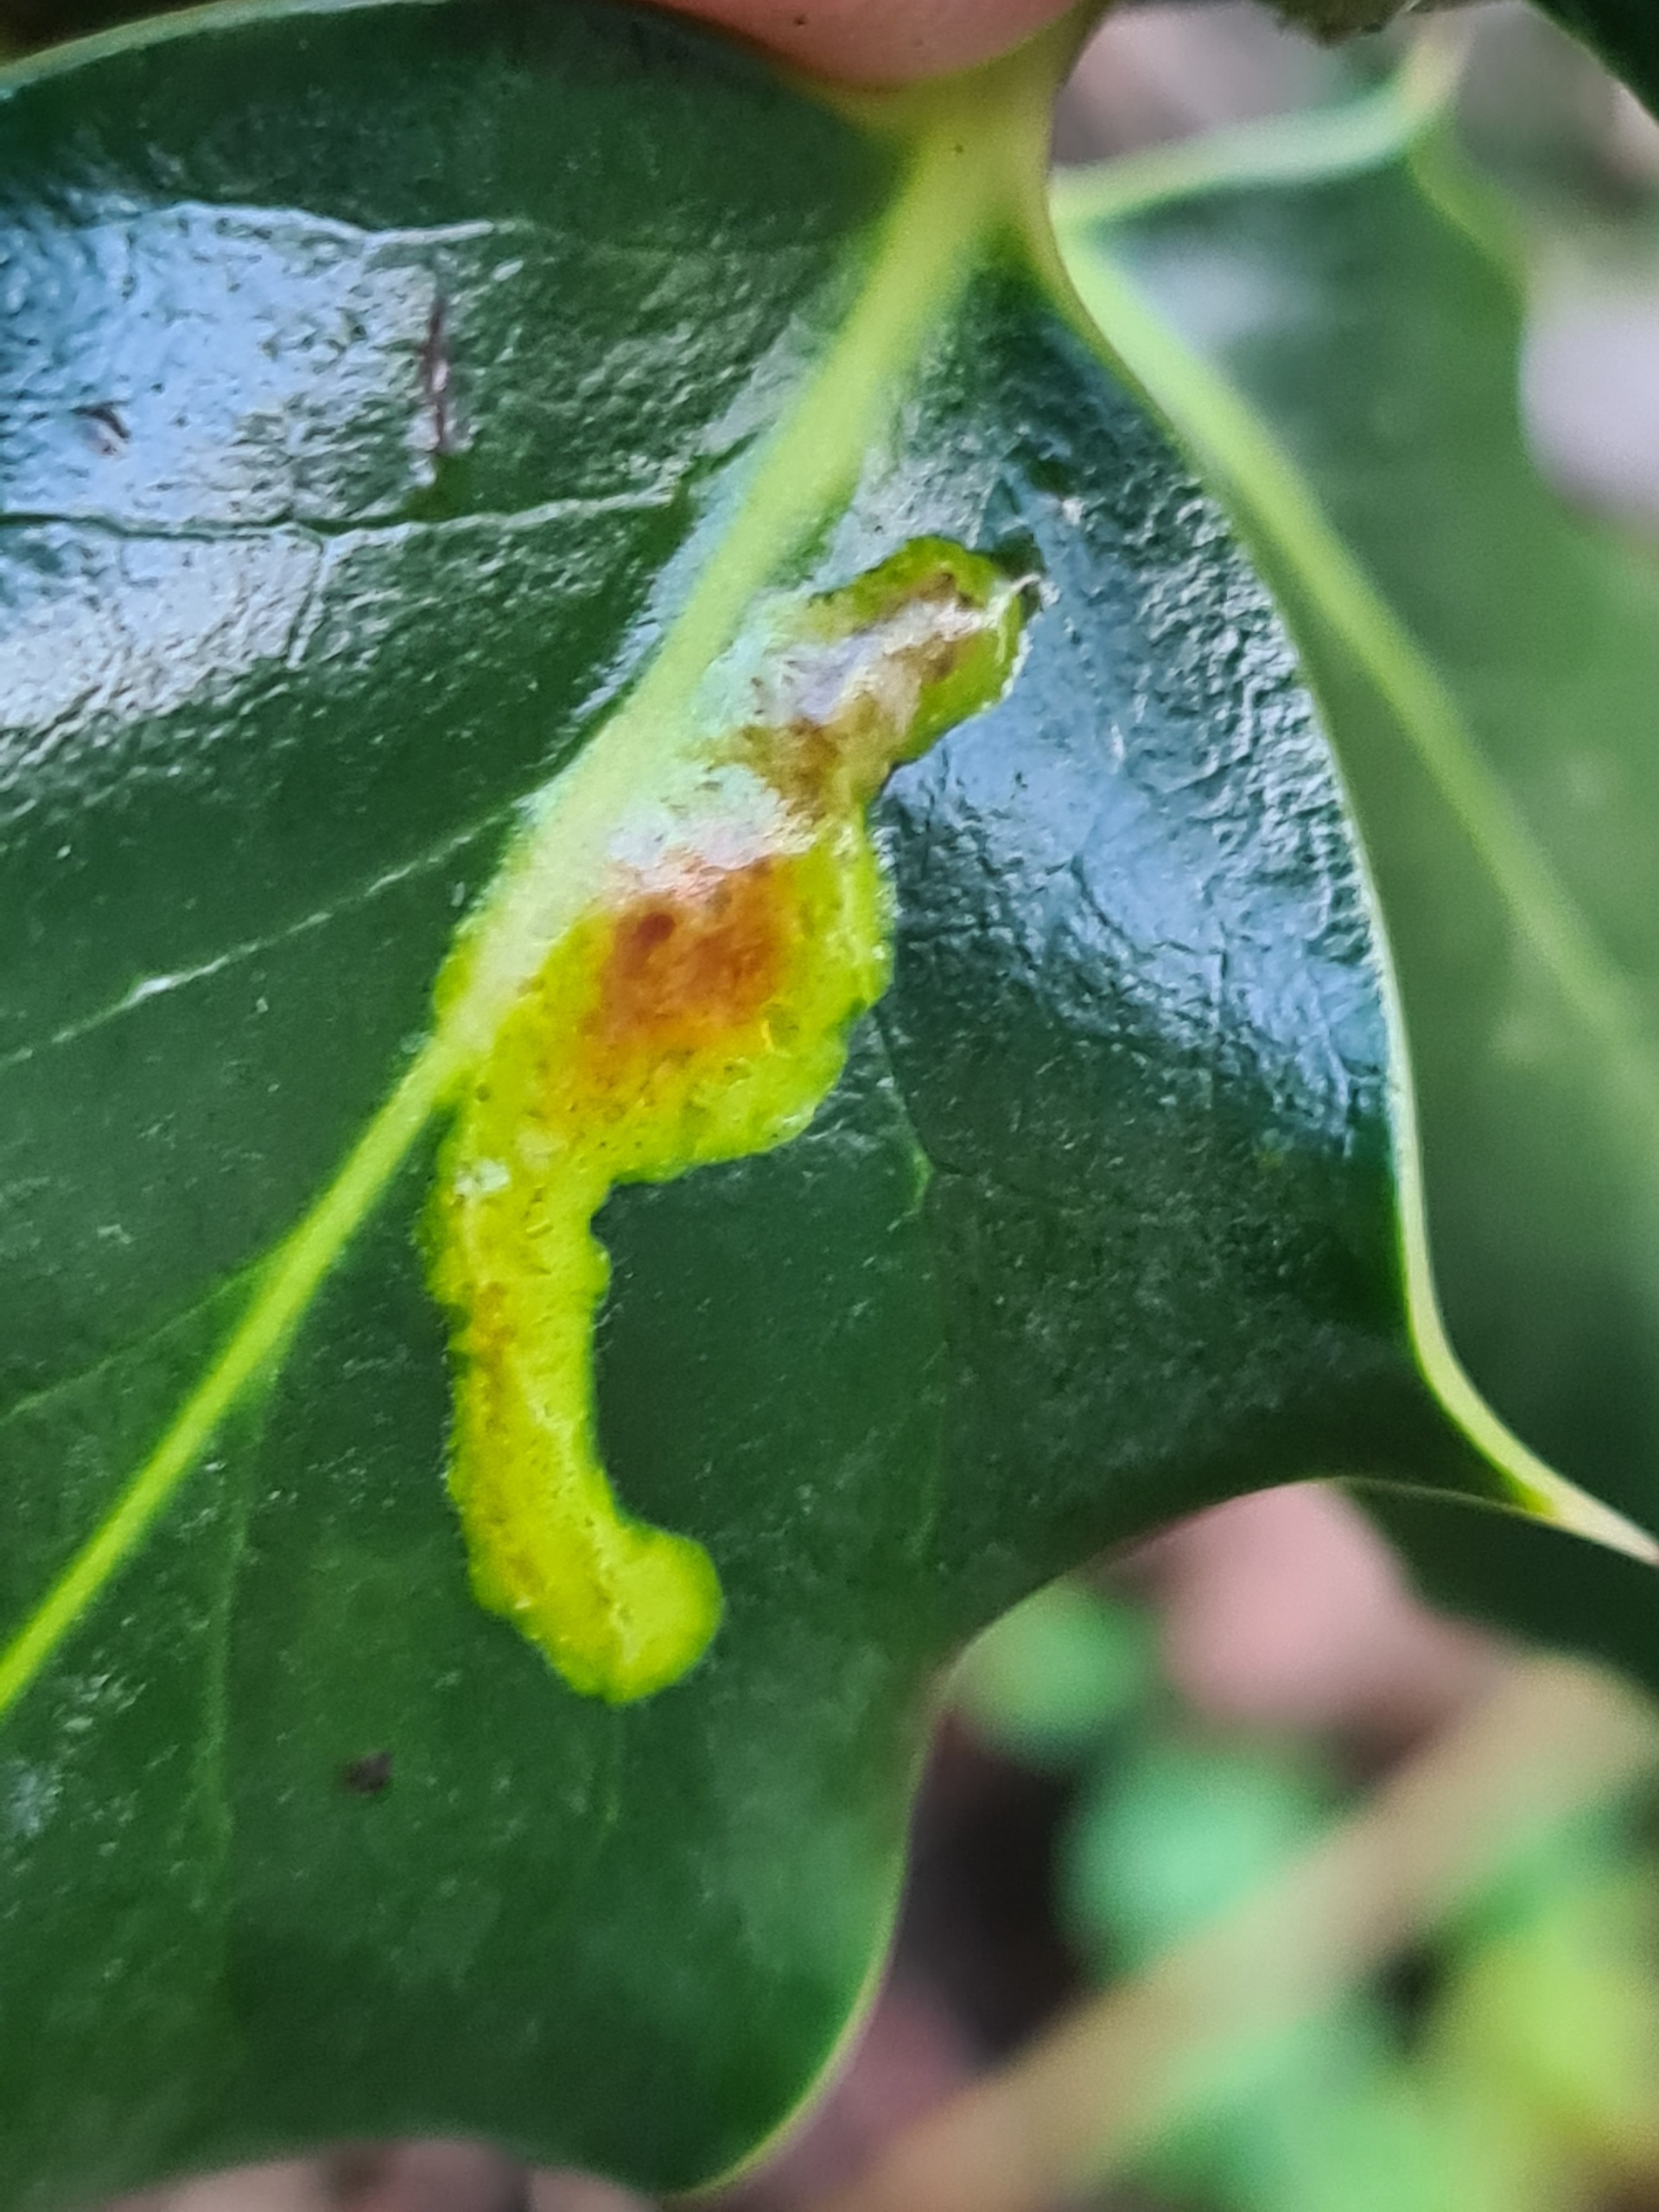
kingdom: Animalia
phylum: Arthropoda
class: Insecta
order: Diptera
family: Agromyzidae
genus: Phytomyza
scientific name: Phytomyza ilicis
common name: Kristtornminérflue
